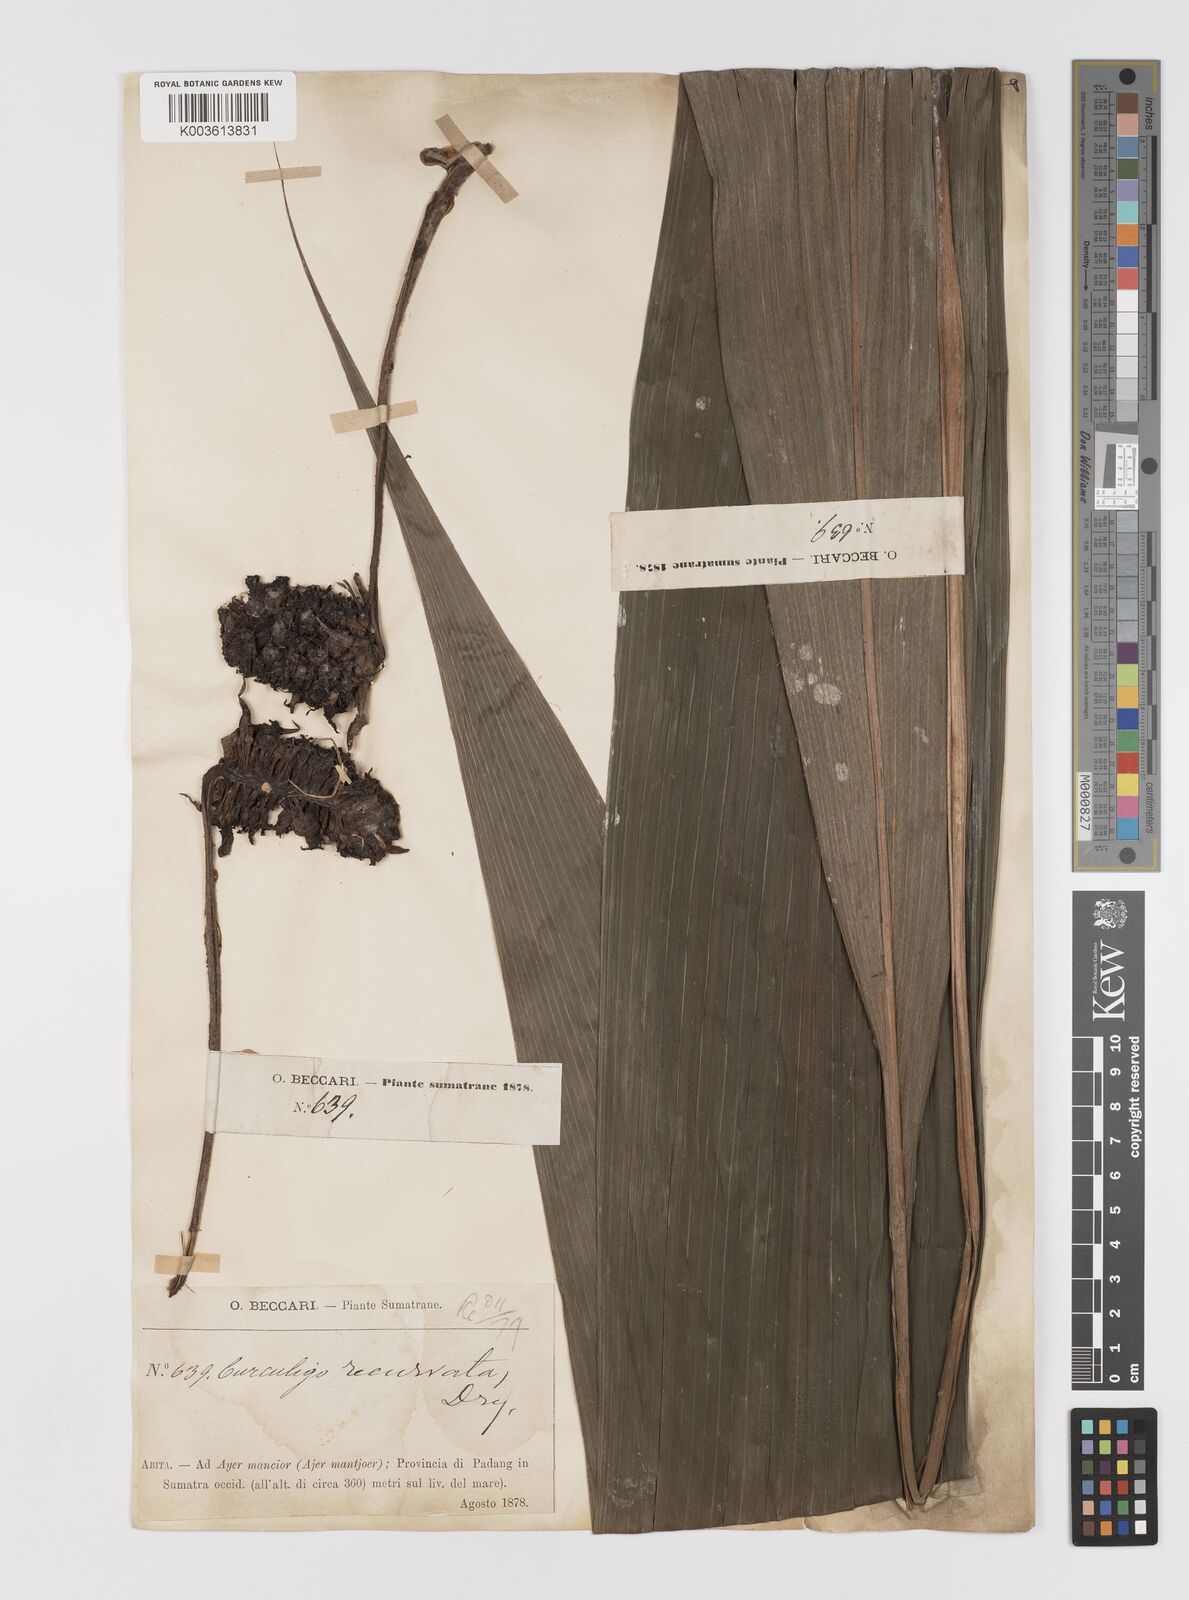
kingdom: Plantae
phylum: Tracheophyta
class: Liliopsida
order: Asparagales
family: Hypoxidaceae
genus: Curculigo
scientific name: Curculigo capitulata
